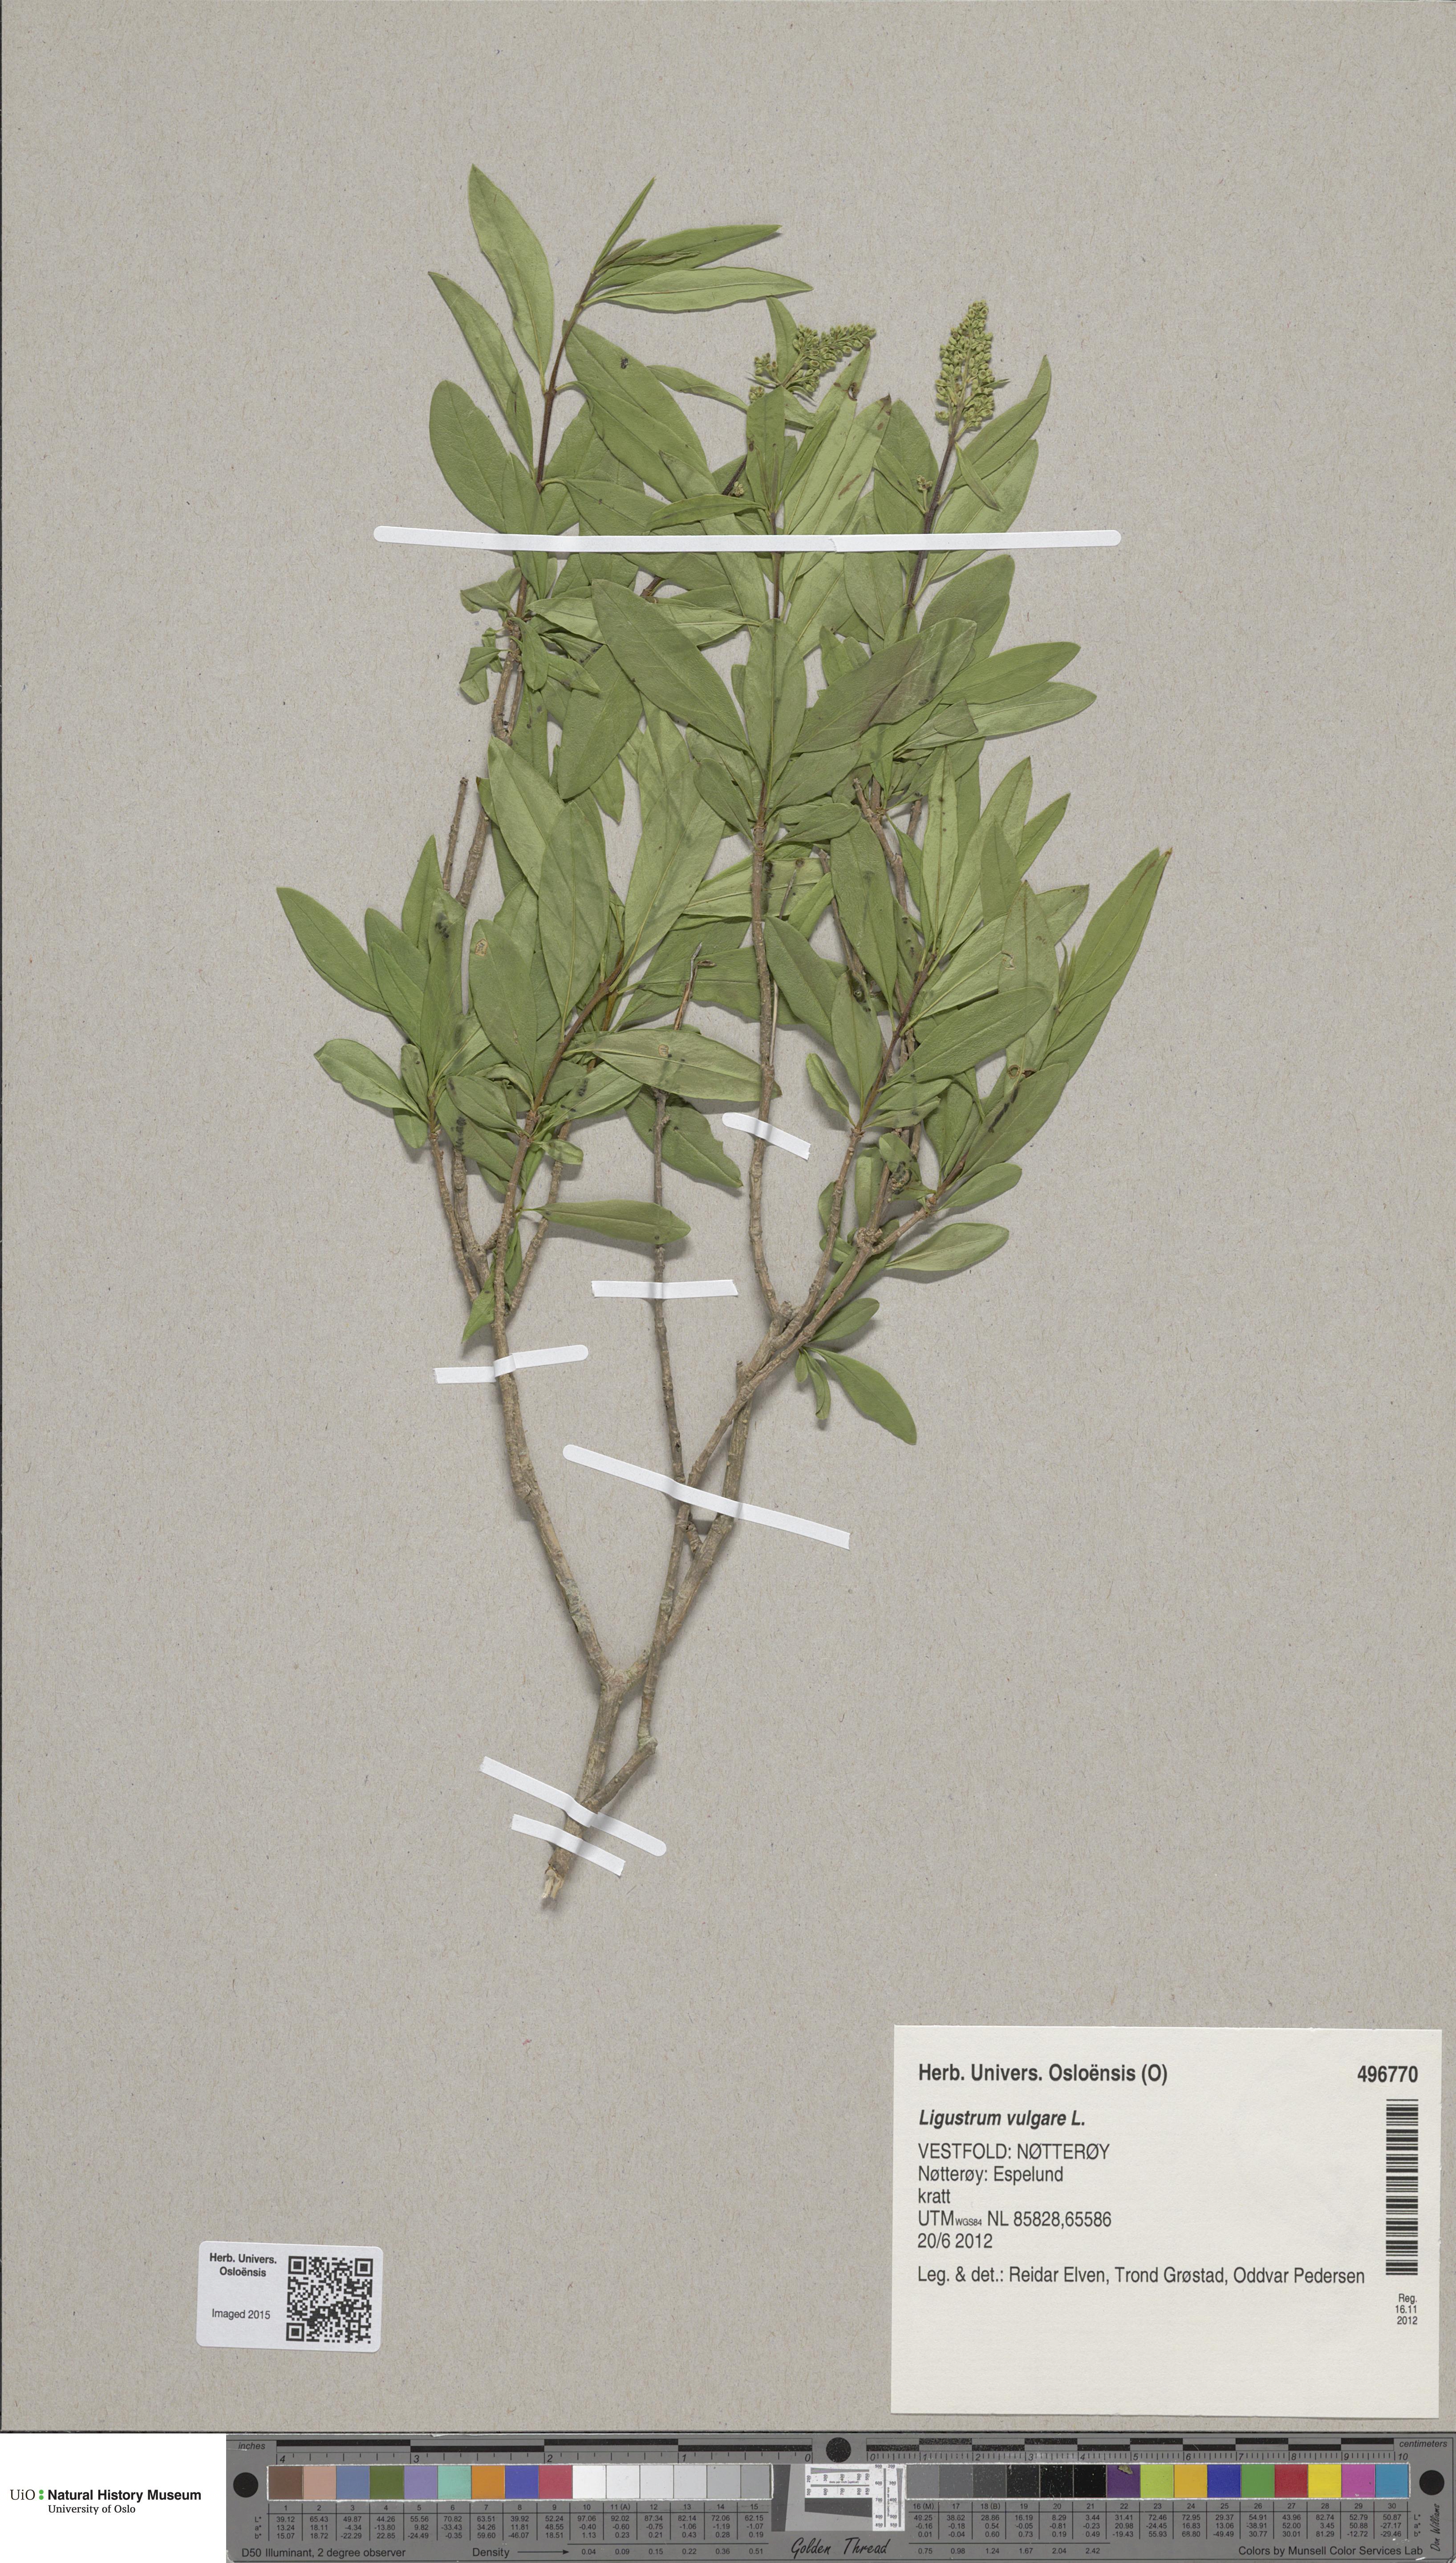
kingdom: Plantae
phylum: Tracheophyta
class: Magnoliopsida
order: Lamiales
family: Oleaceae
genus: Ligustrum
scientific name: Ligustrum vulgare
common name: Wild privet
